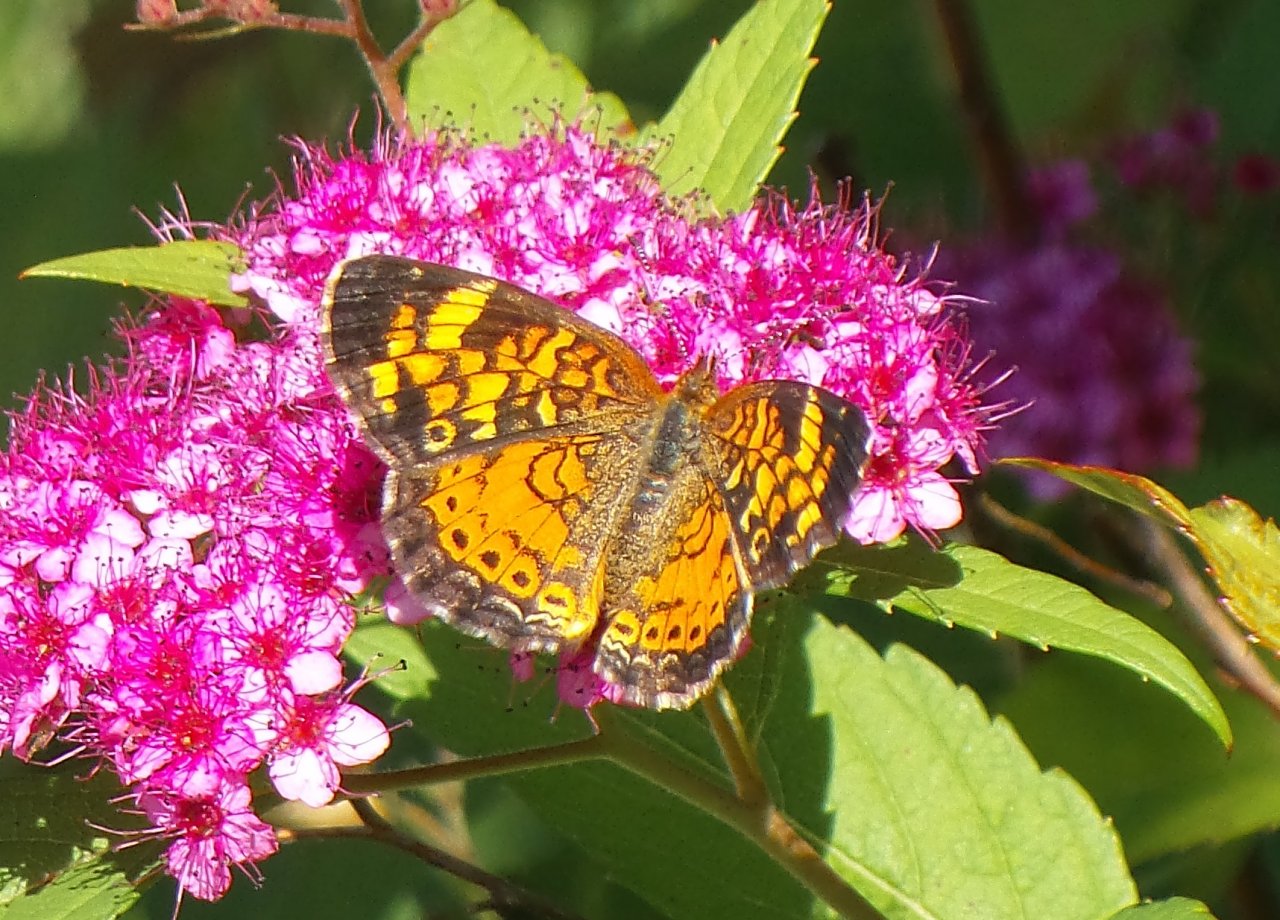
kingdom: Animalia
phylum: Arthropoda
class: Insecta
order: Lepidoptera
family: Nymphalidae
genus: Phyciodes
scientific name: Phyciodes tharos
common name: Northern Crescent
